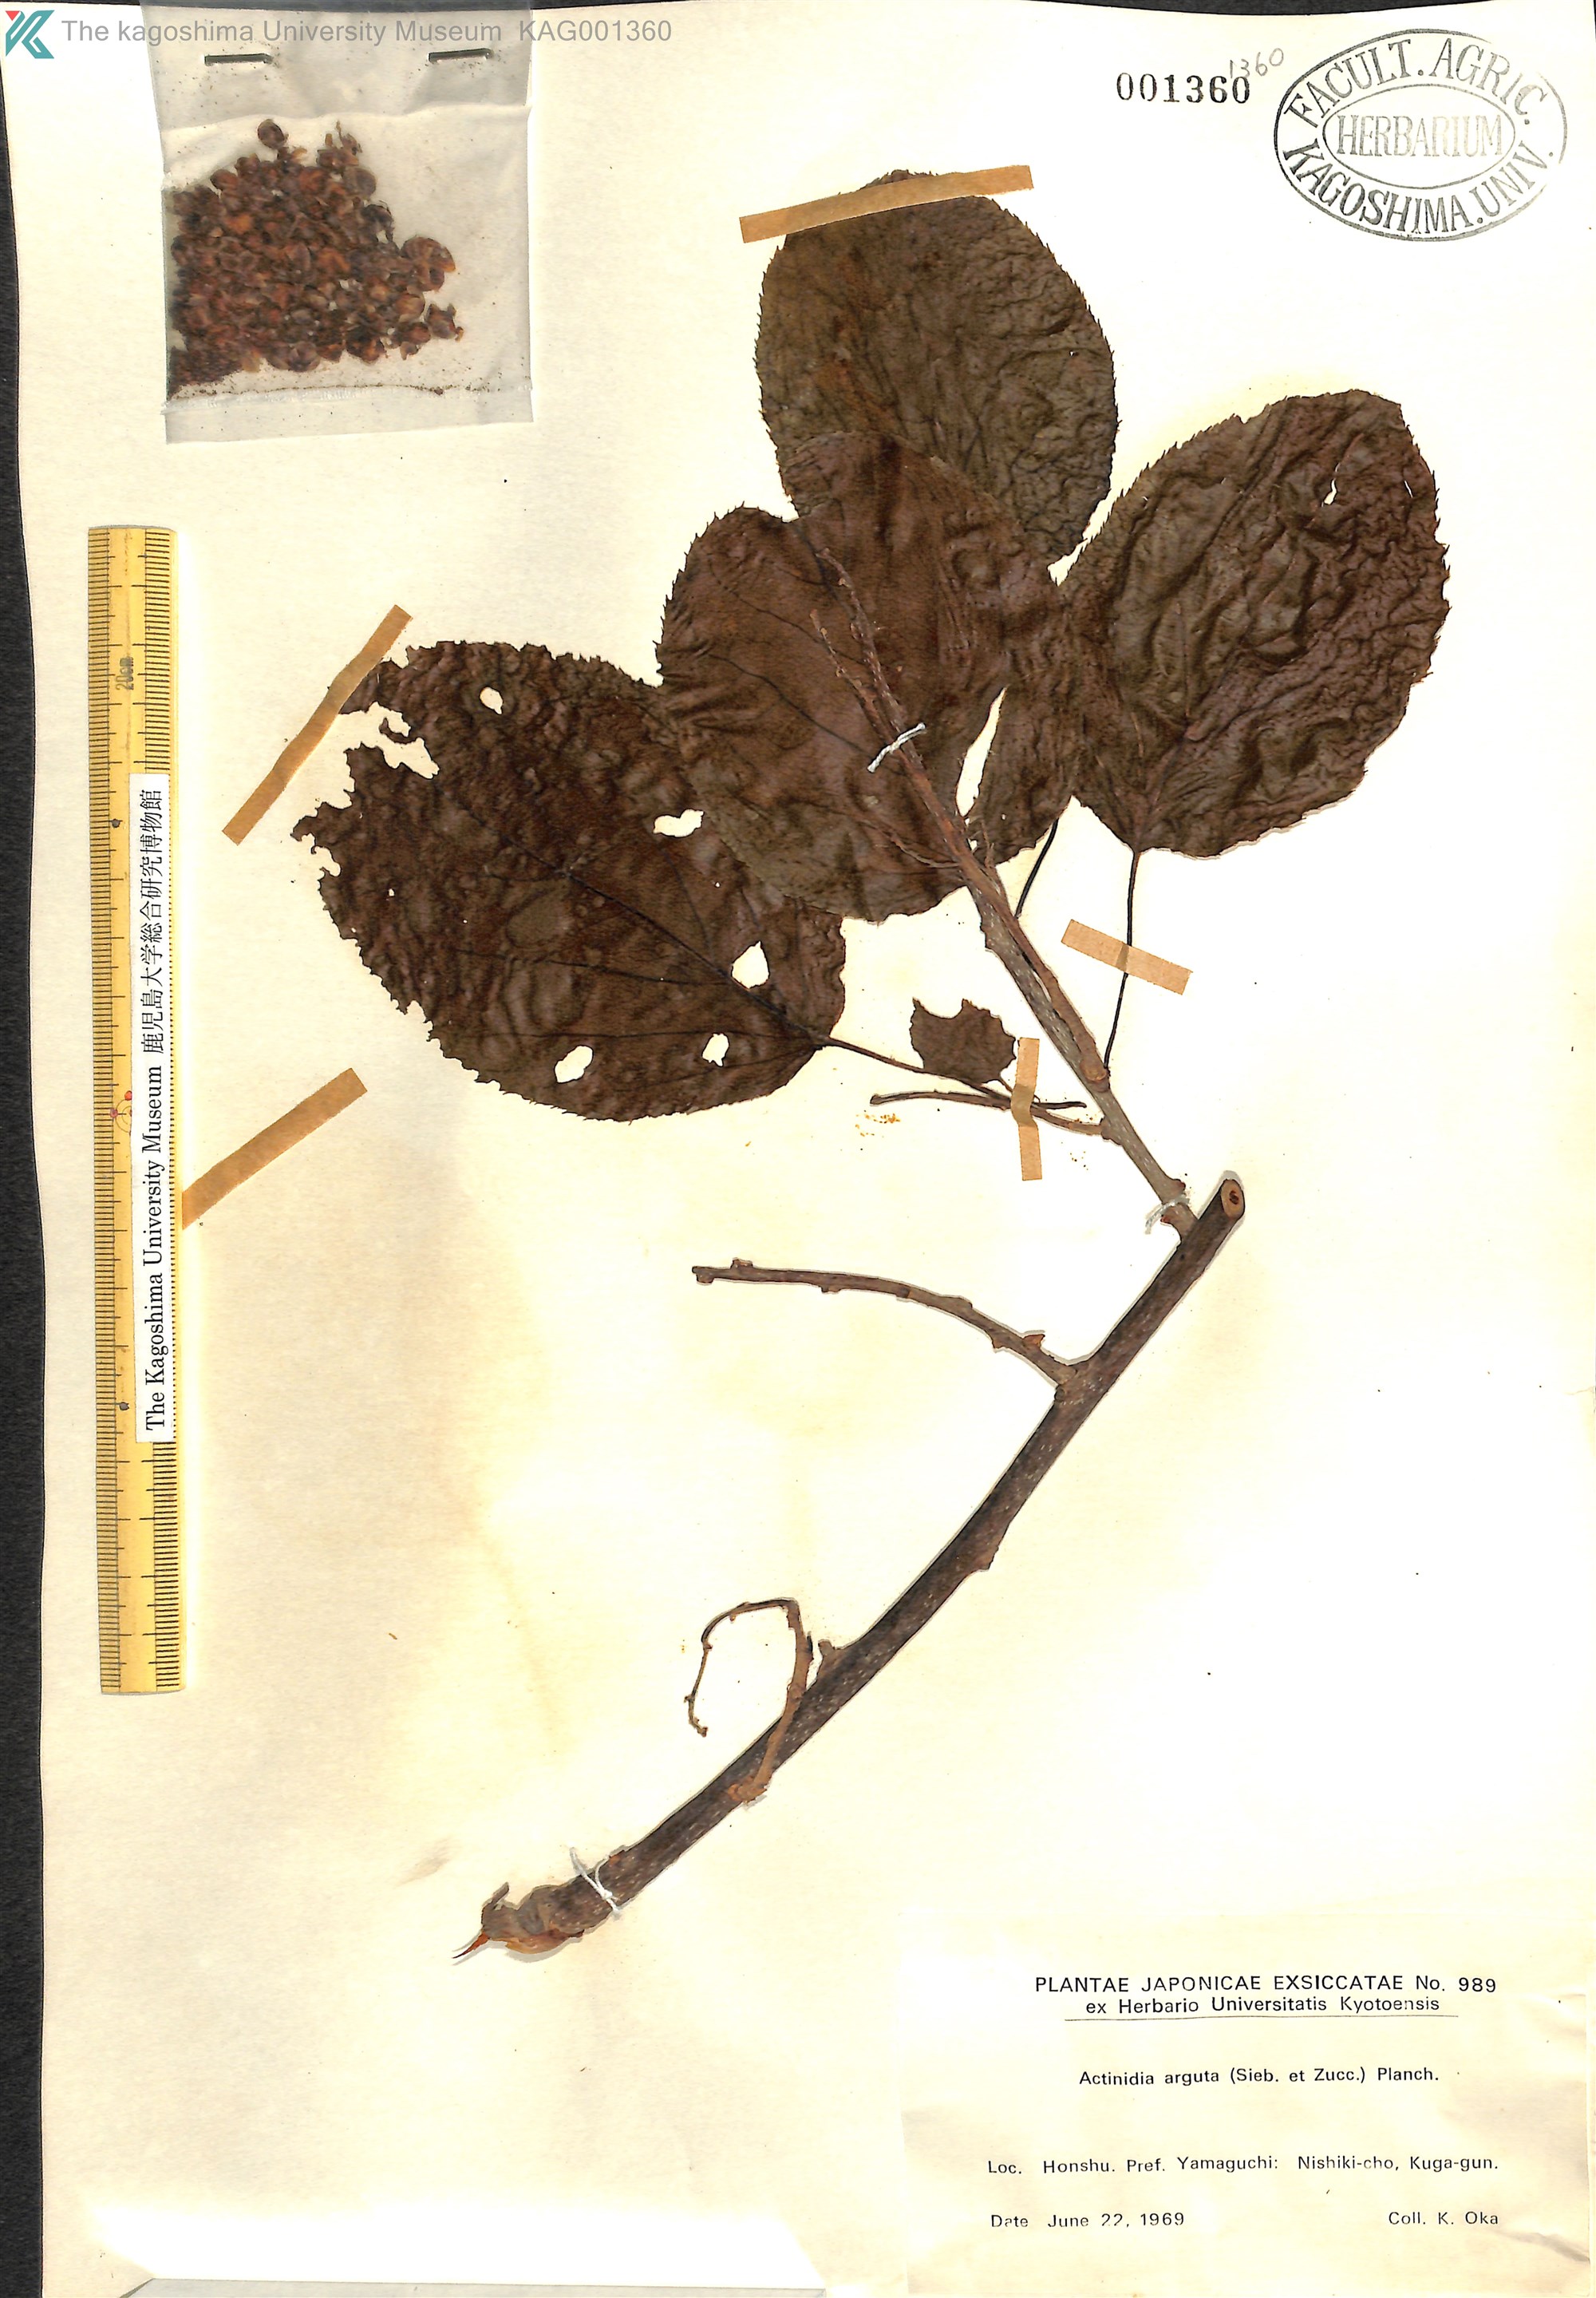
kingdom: Plantae
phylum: Tracheophyta
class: Magnoliopsida
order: Ericales
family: Actinidiaceae
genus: Actinidia
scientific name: Actinidia arguta
